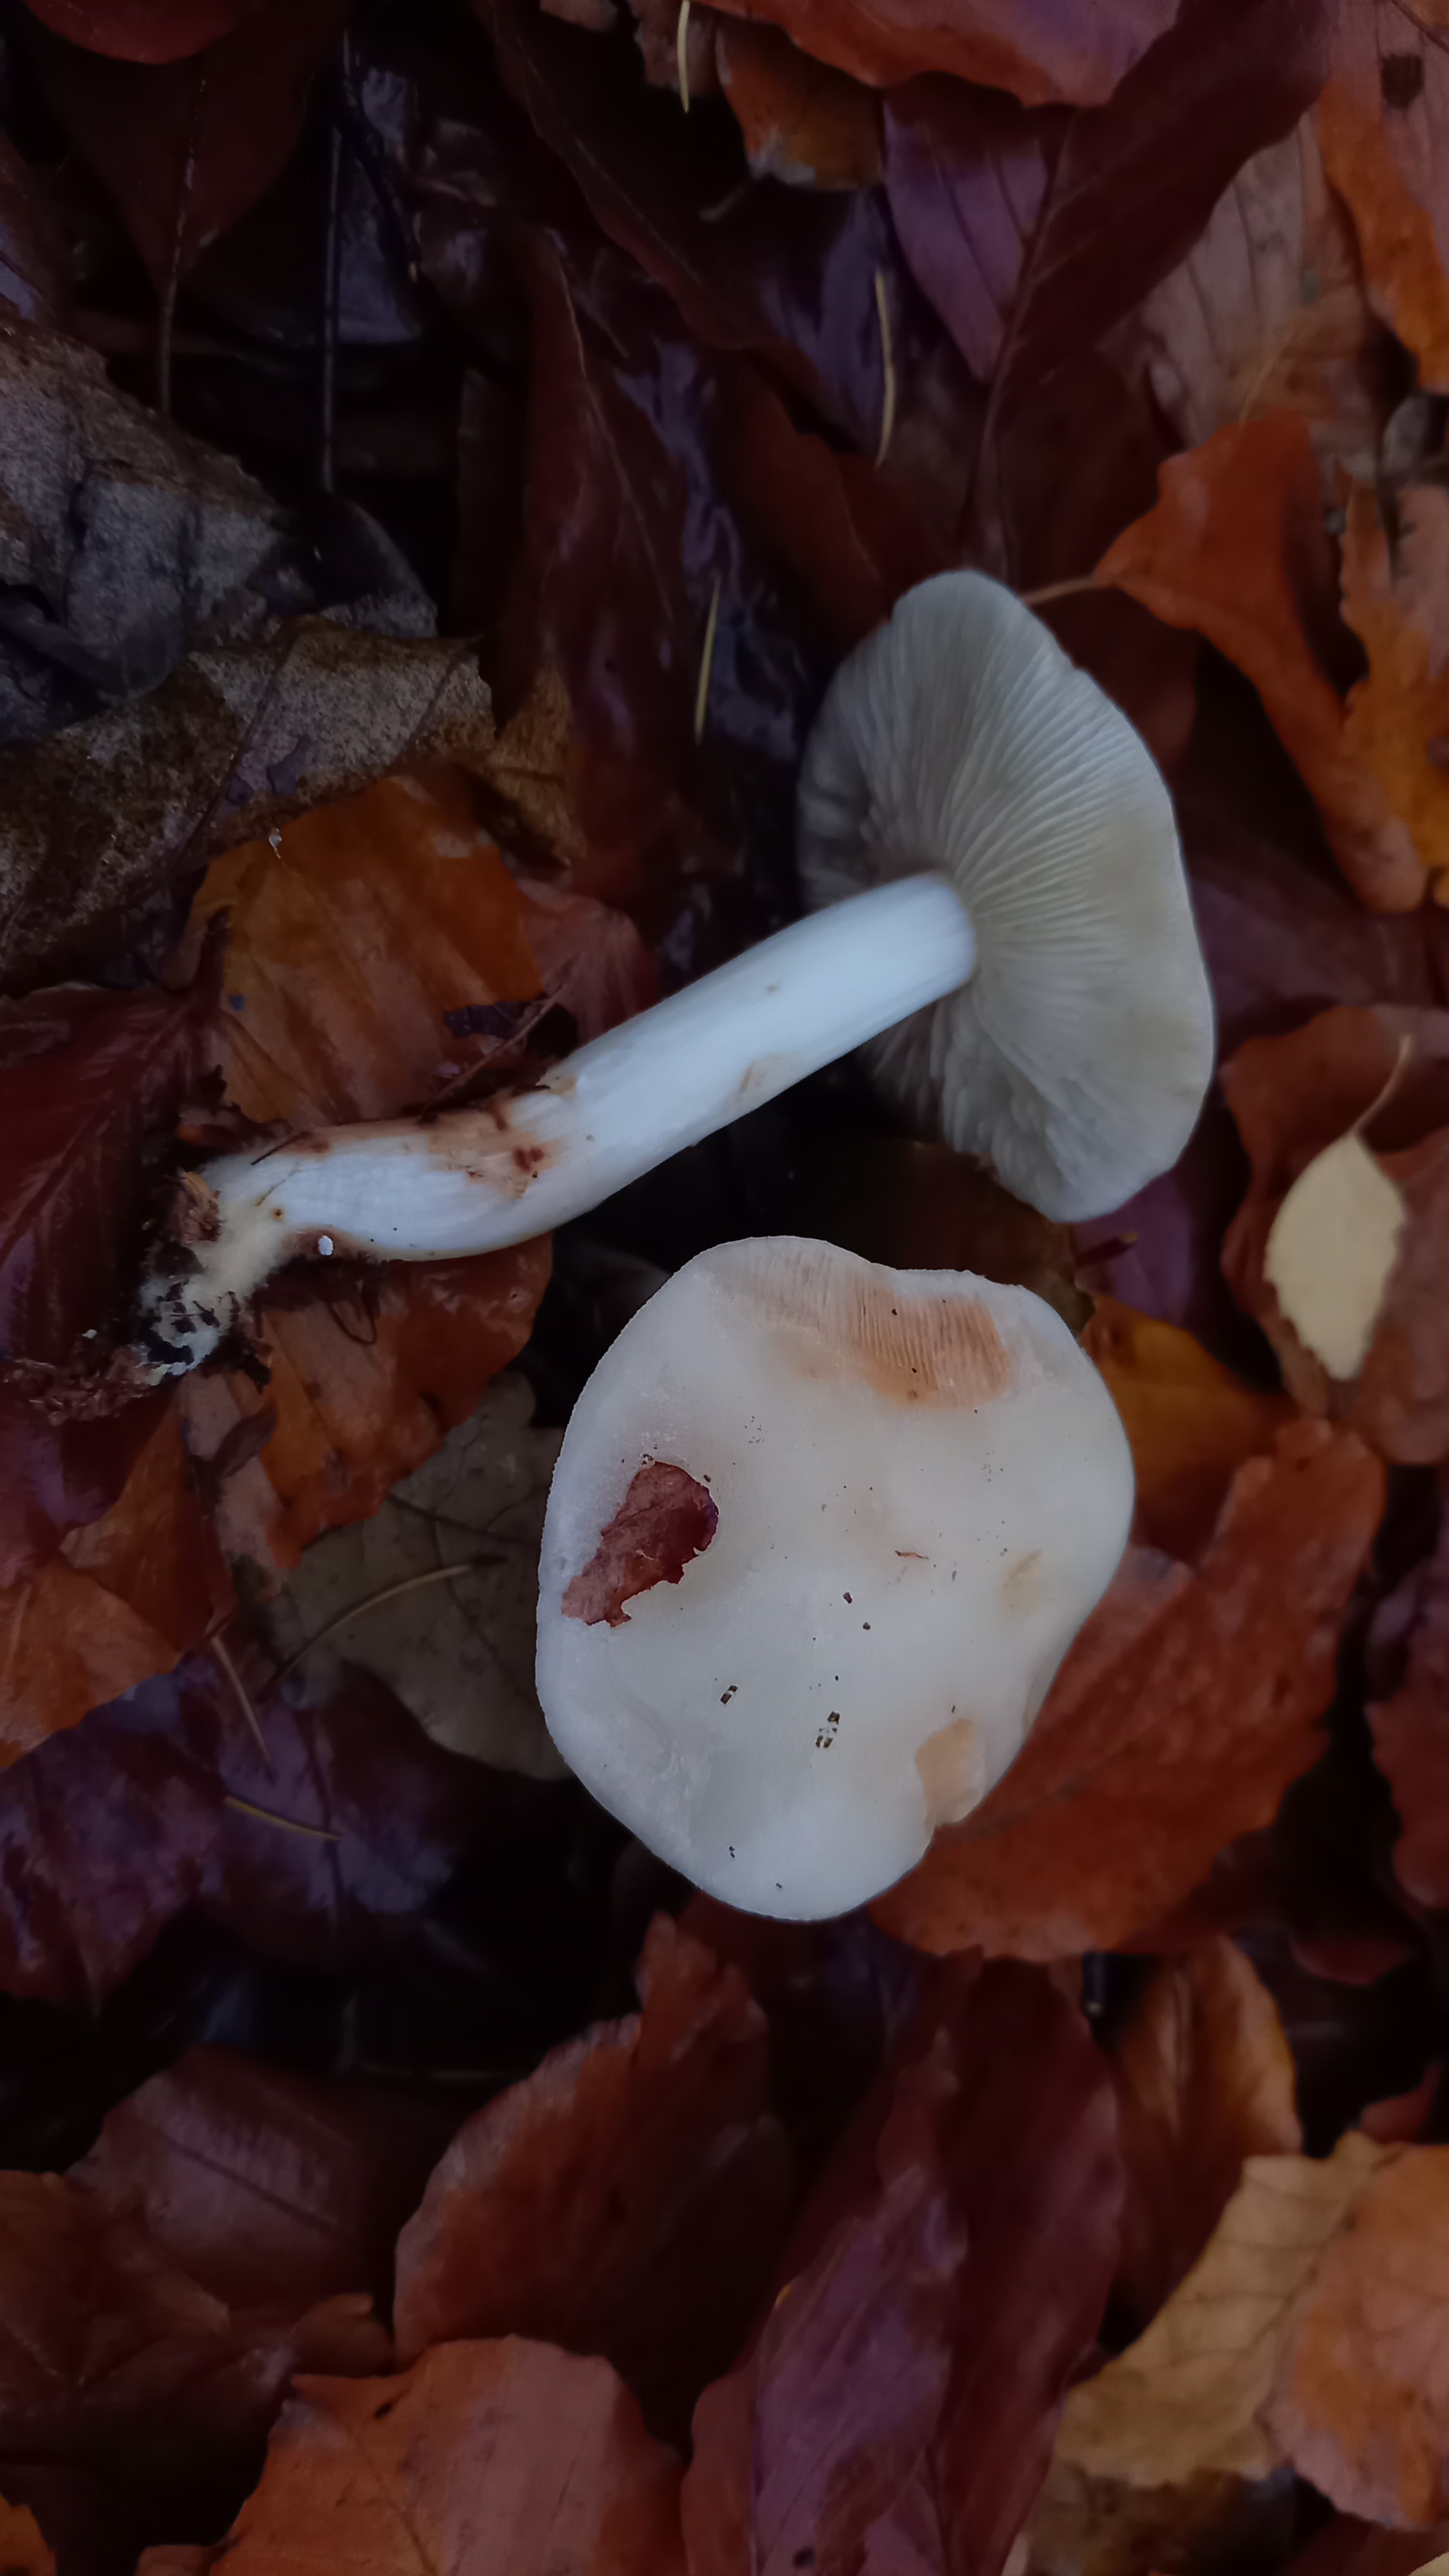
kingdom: Fungi
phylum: Basidiomycota
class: Agaricomycetes
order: Agaricales
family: Omphalotaceae
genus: Rhodocollybia
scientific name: Rhodocollybia maculata
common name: plettet fladhat
